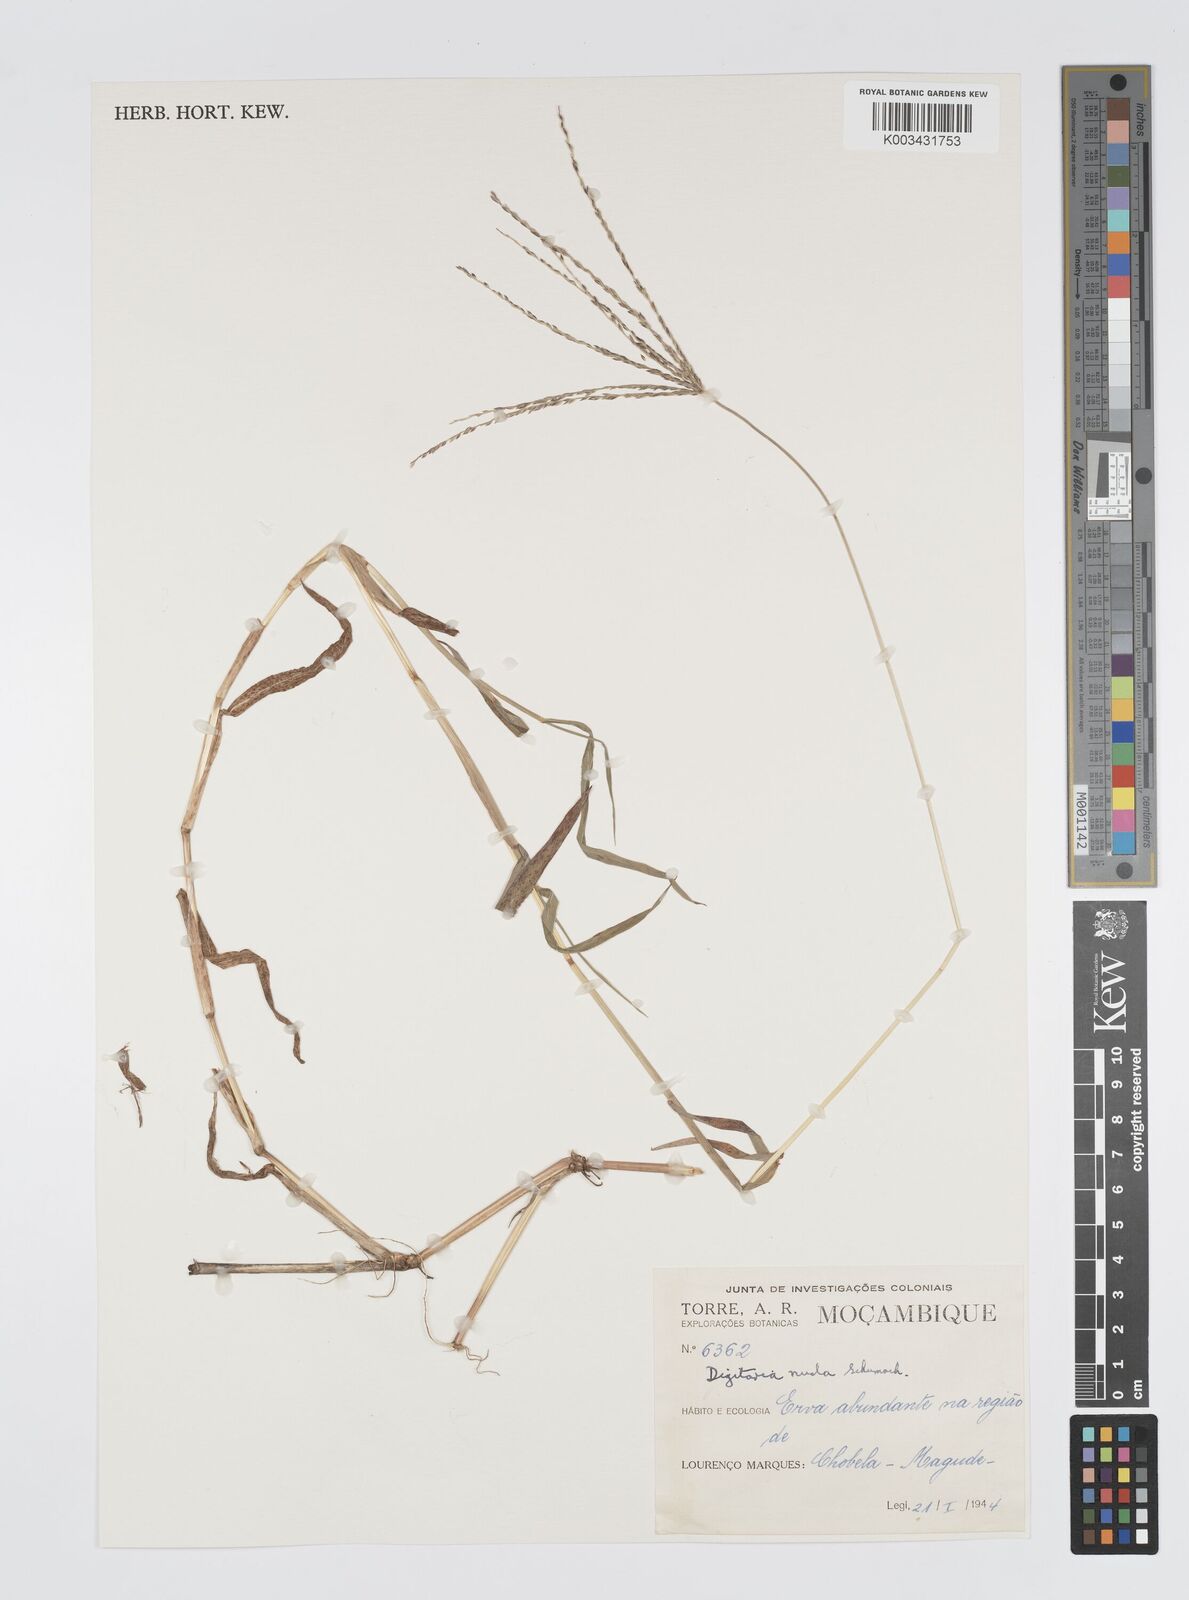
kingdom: Plantae
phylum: Tracheophyta
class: Liliopsida
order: Poales
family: Poaceae
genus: Digitaria
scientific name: Digitaria nuda
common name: Naked crabgrass
